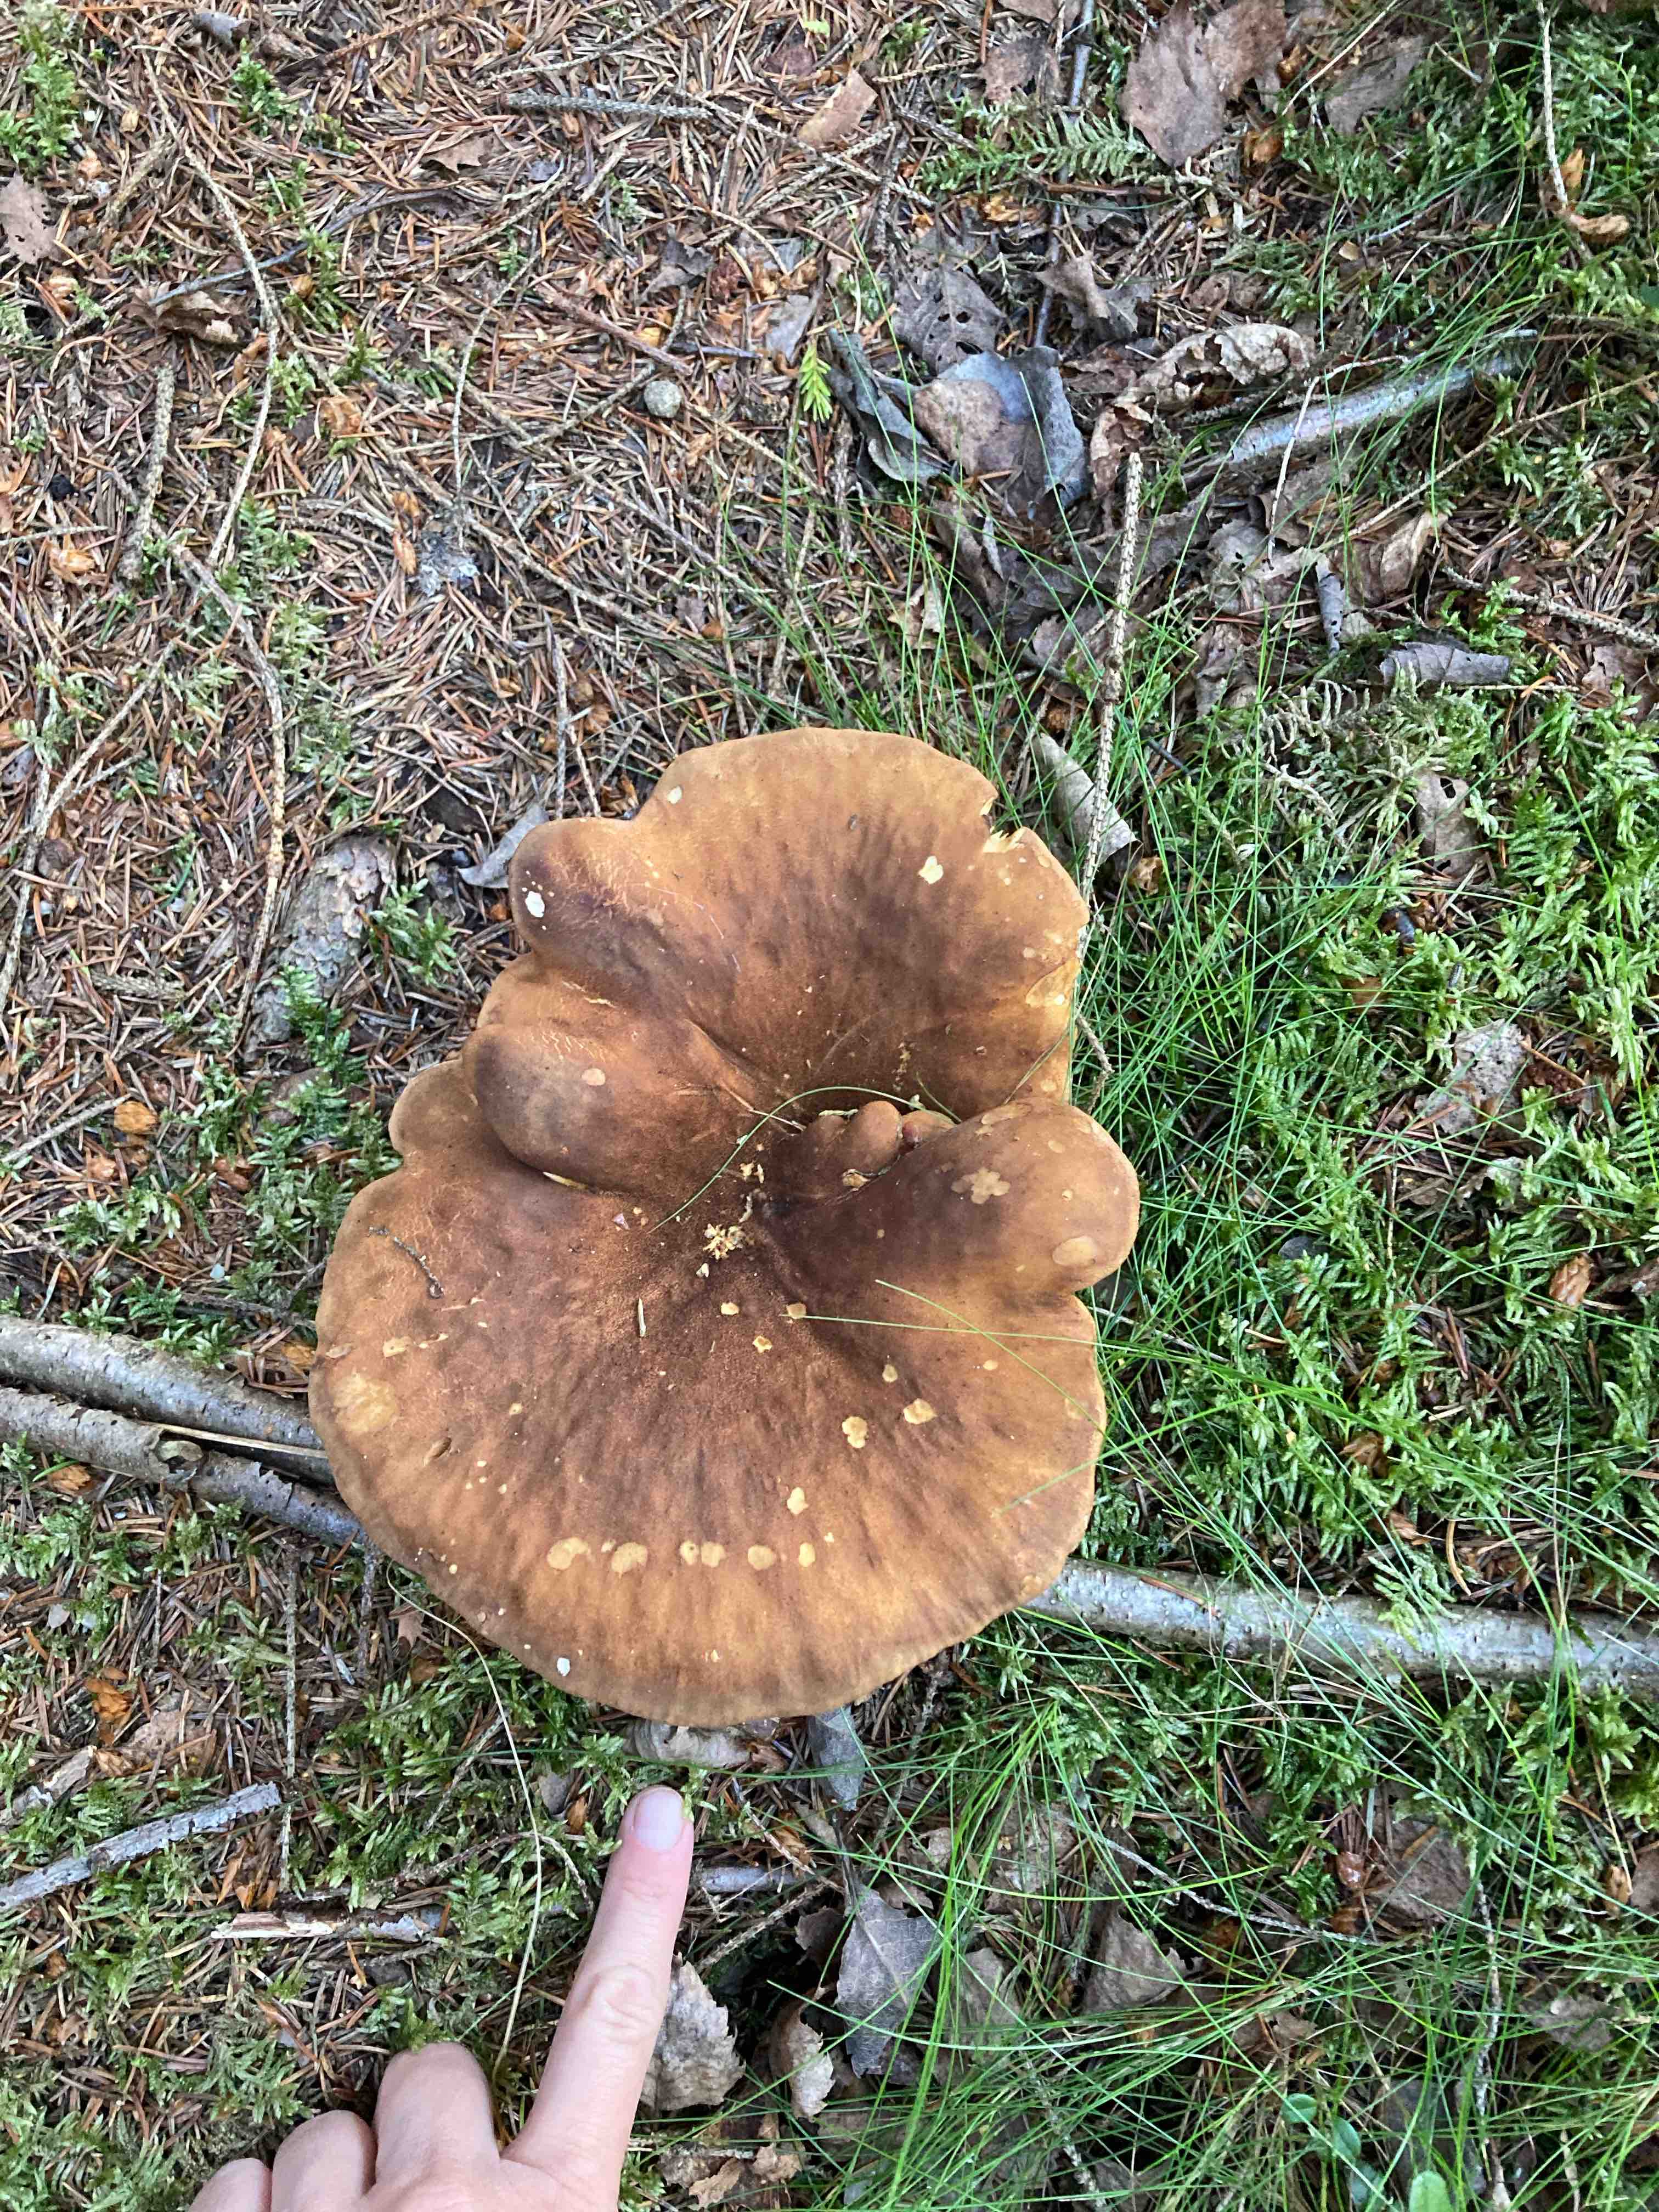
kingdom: Fungi
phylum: Basidiomycota
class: Agaricomycetes
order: Boletales
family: Tapinellaceae
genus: Tapinella
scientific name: Tapinella atrotomentosa
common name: sortfiltet viftesvamp
